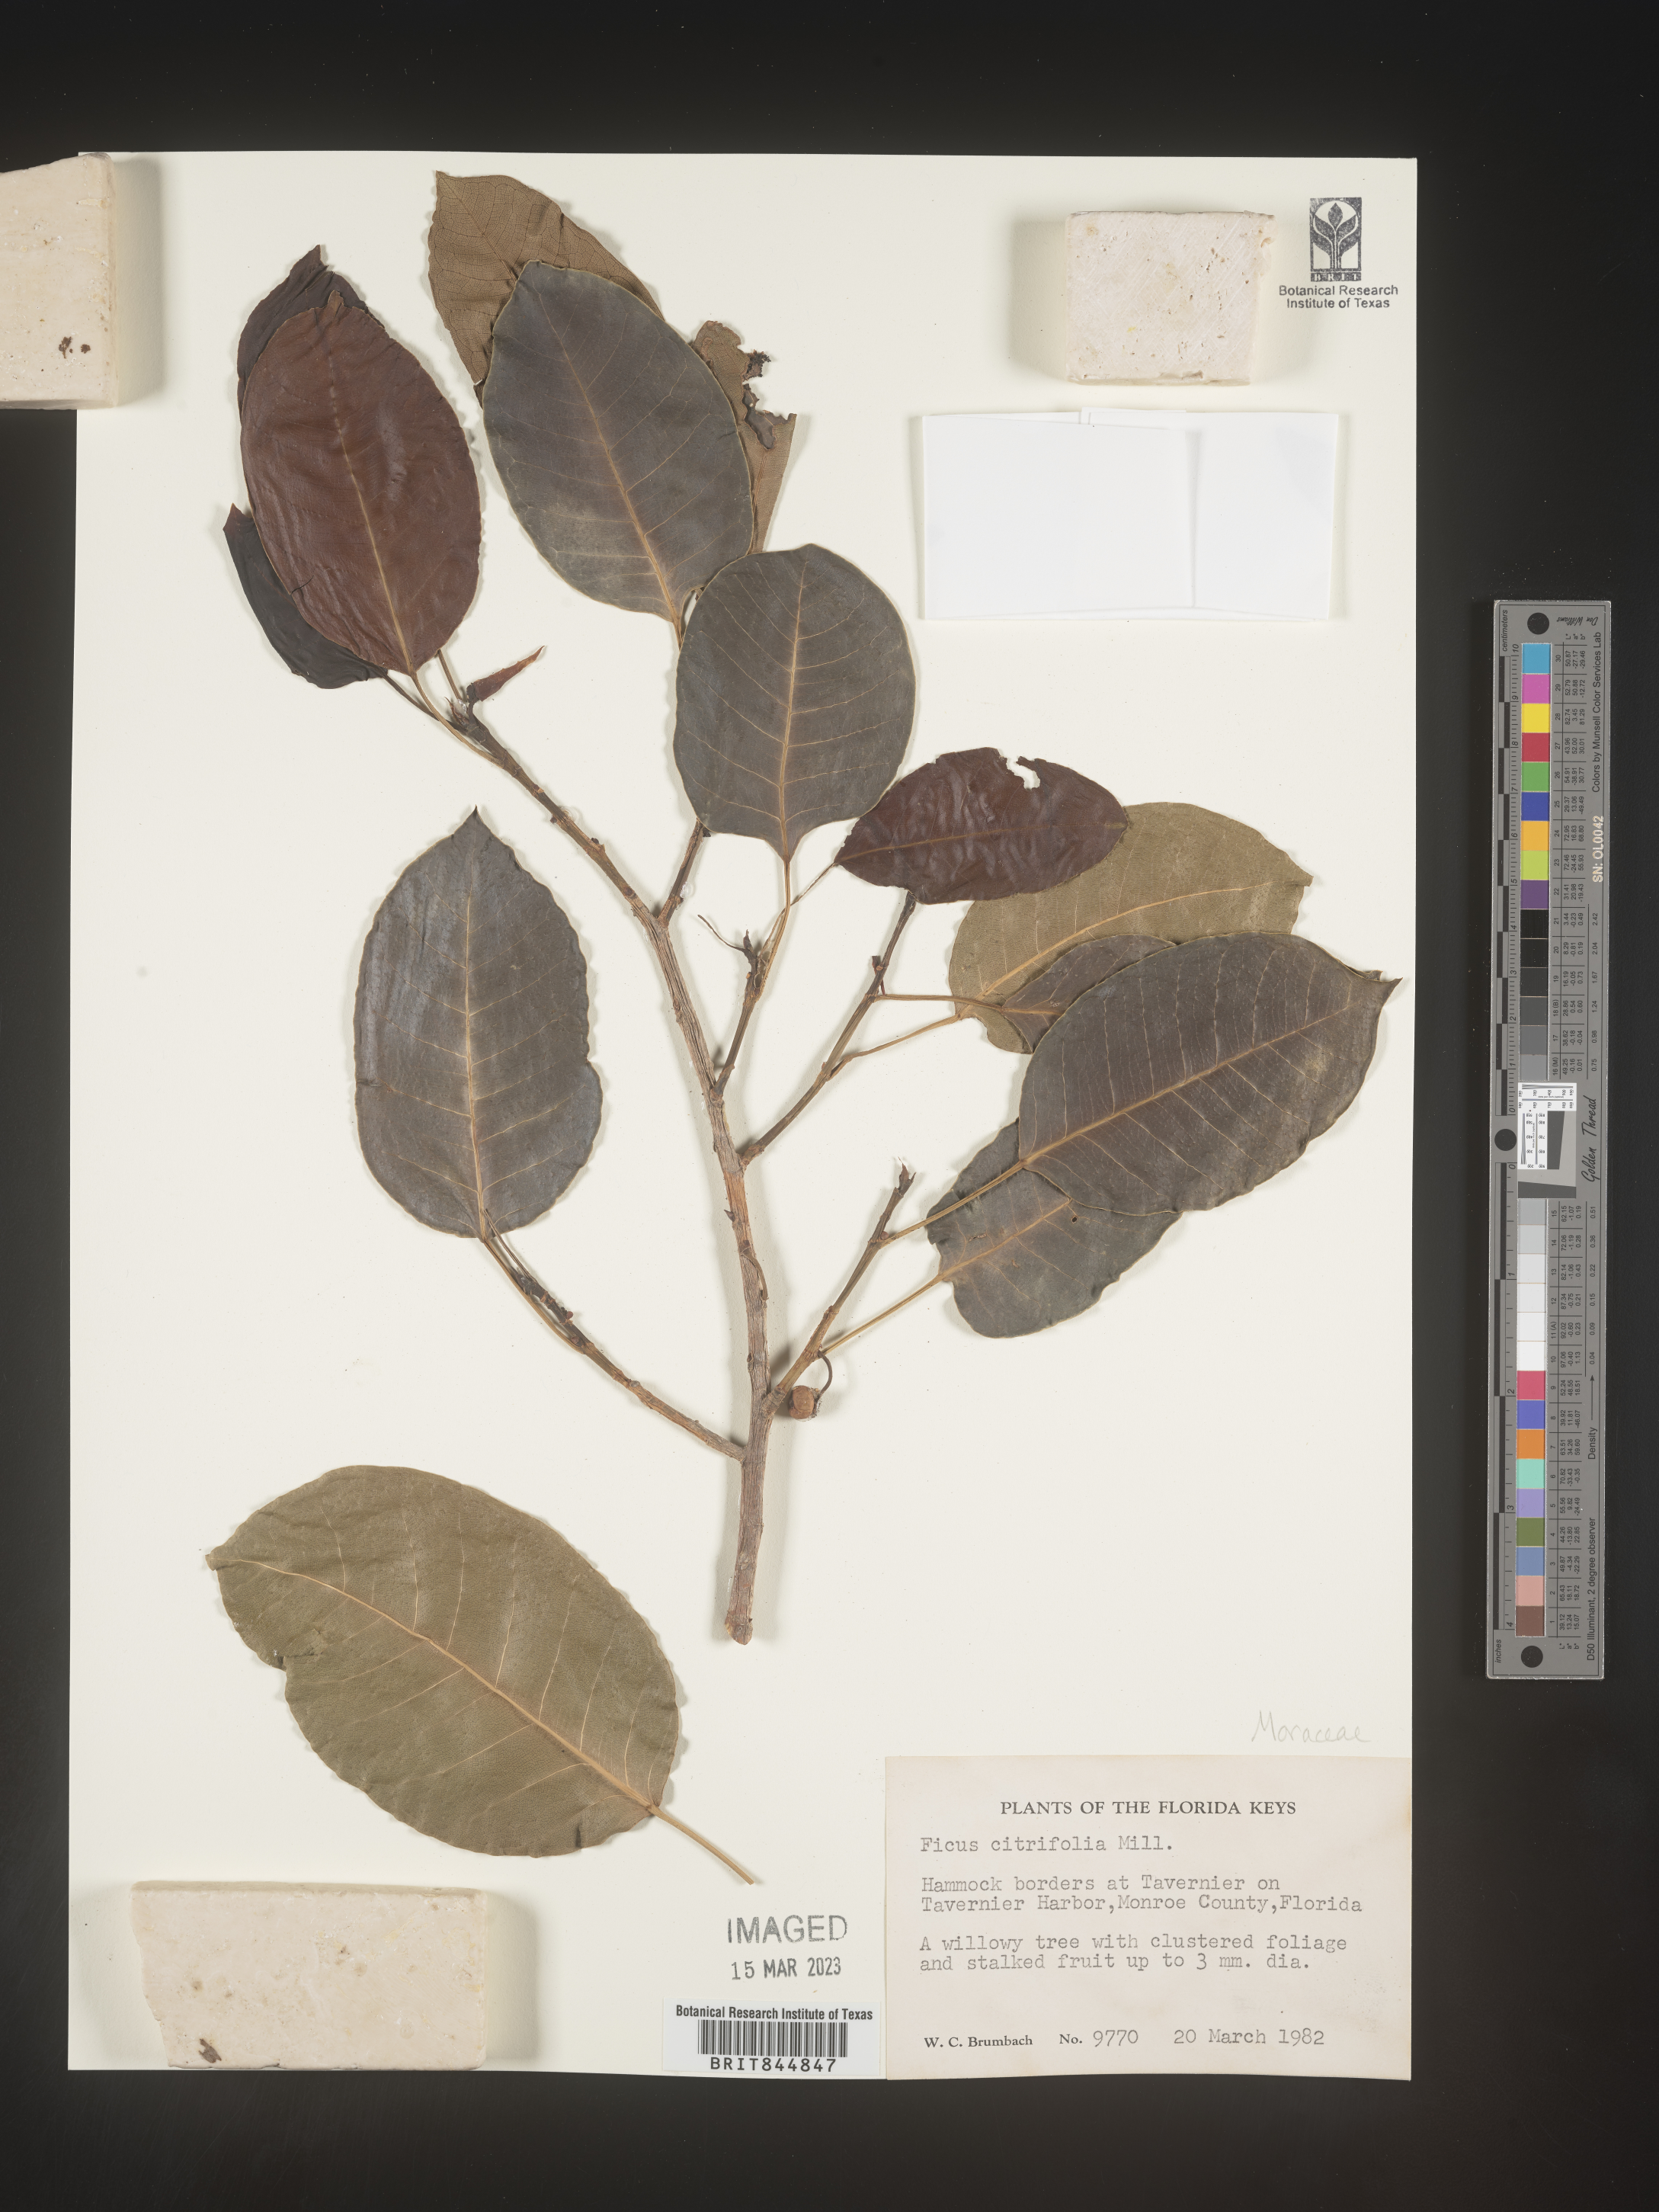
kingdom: Plantae
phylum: Tracheophyta
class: Magnoliopsida
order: Rosales
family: Moraceae
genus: Ficus
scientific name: Ficus
